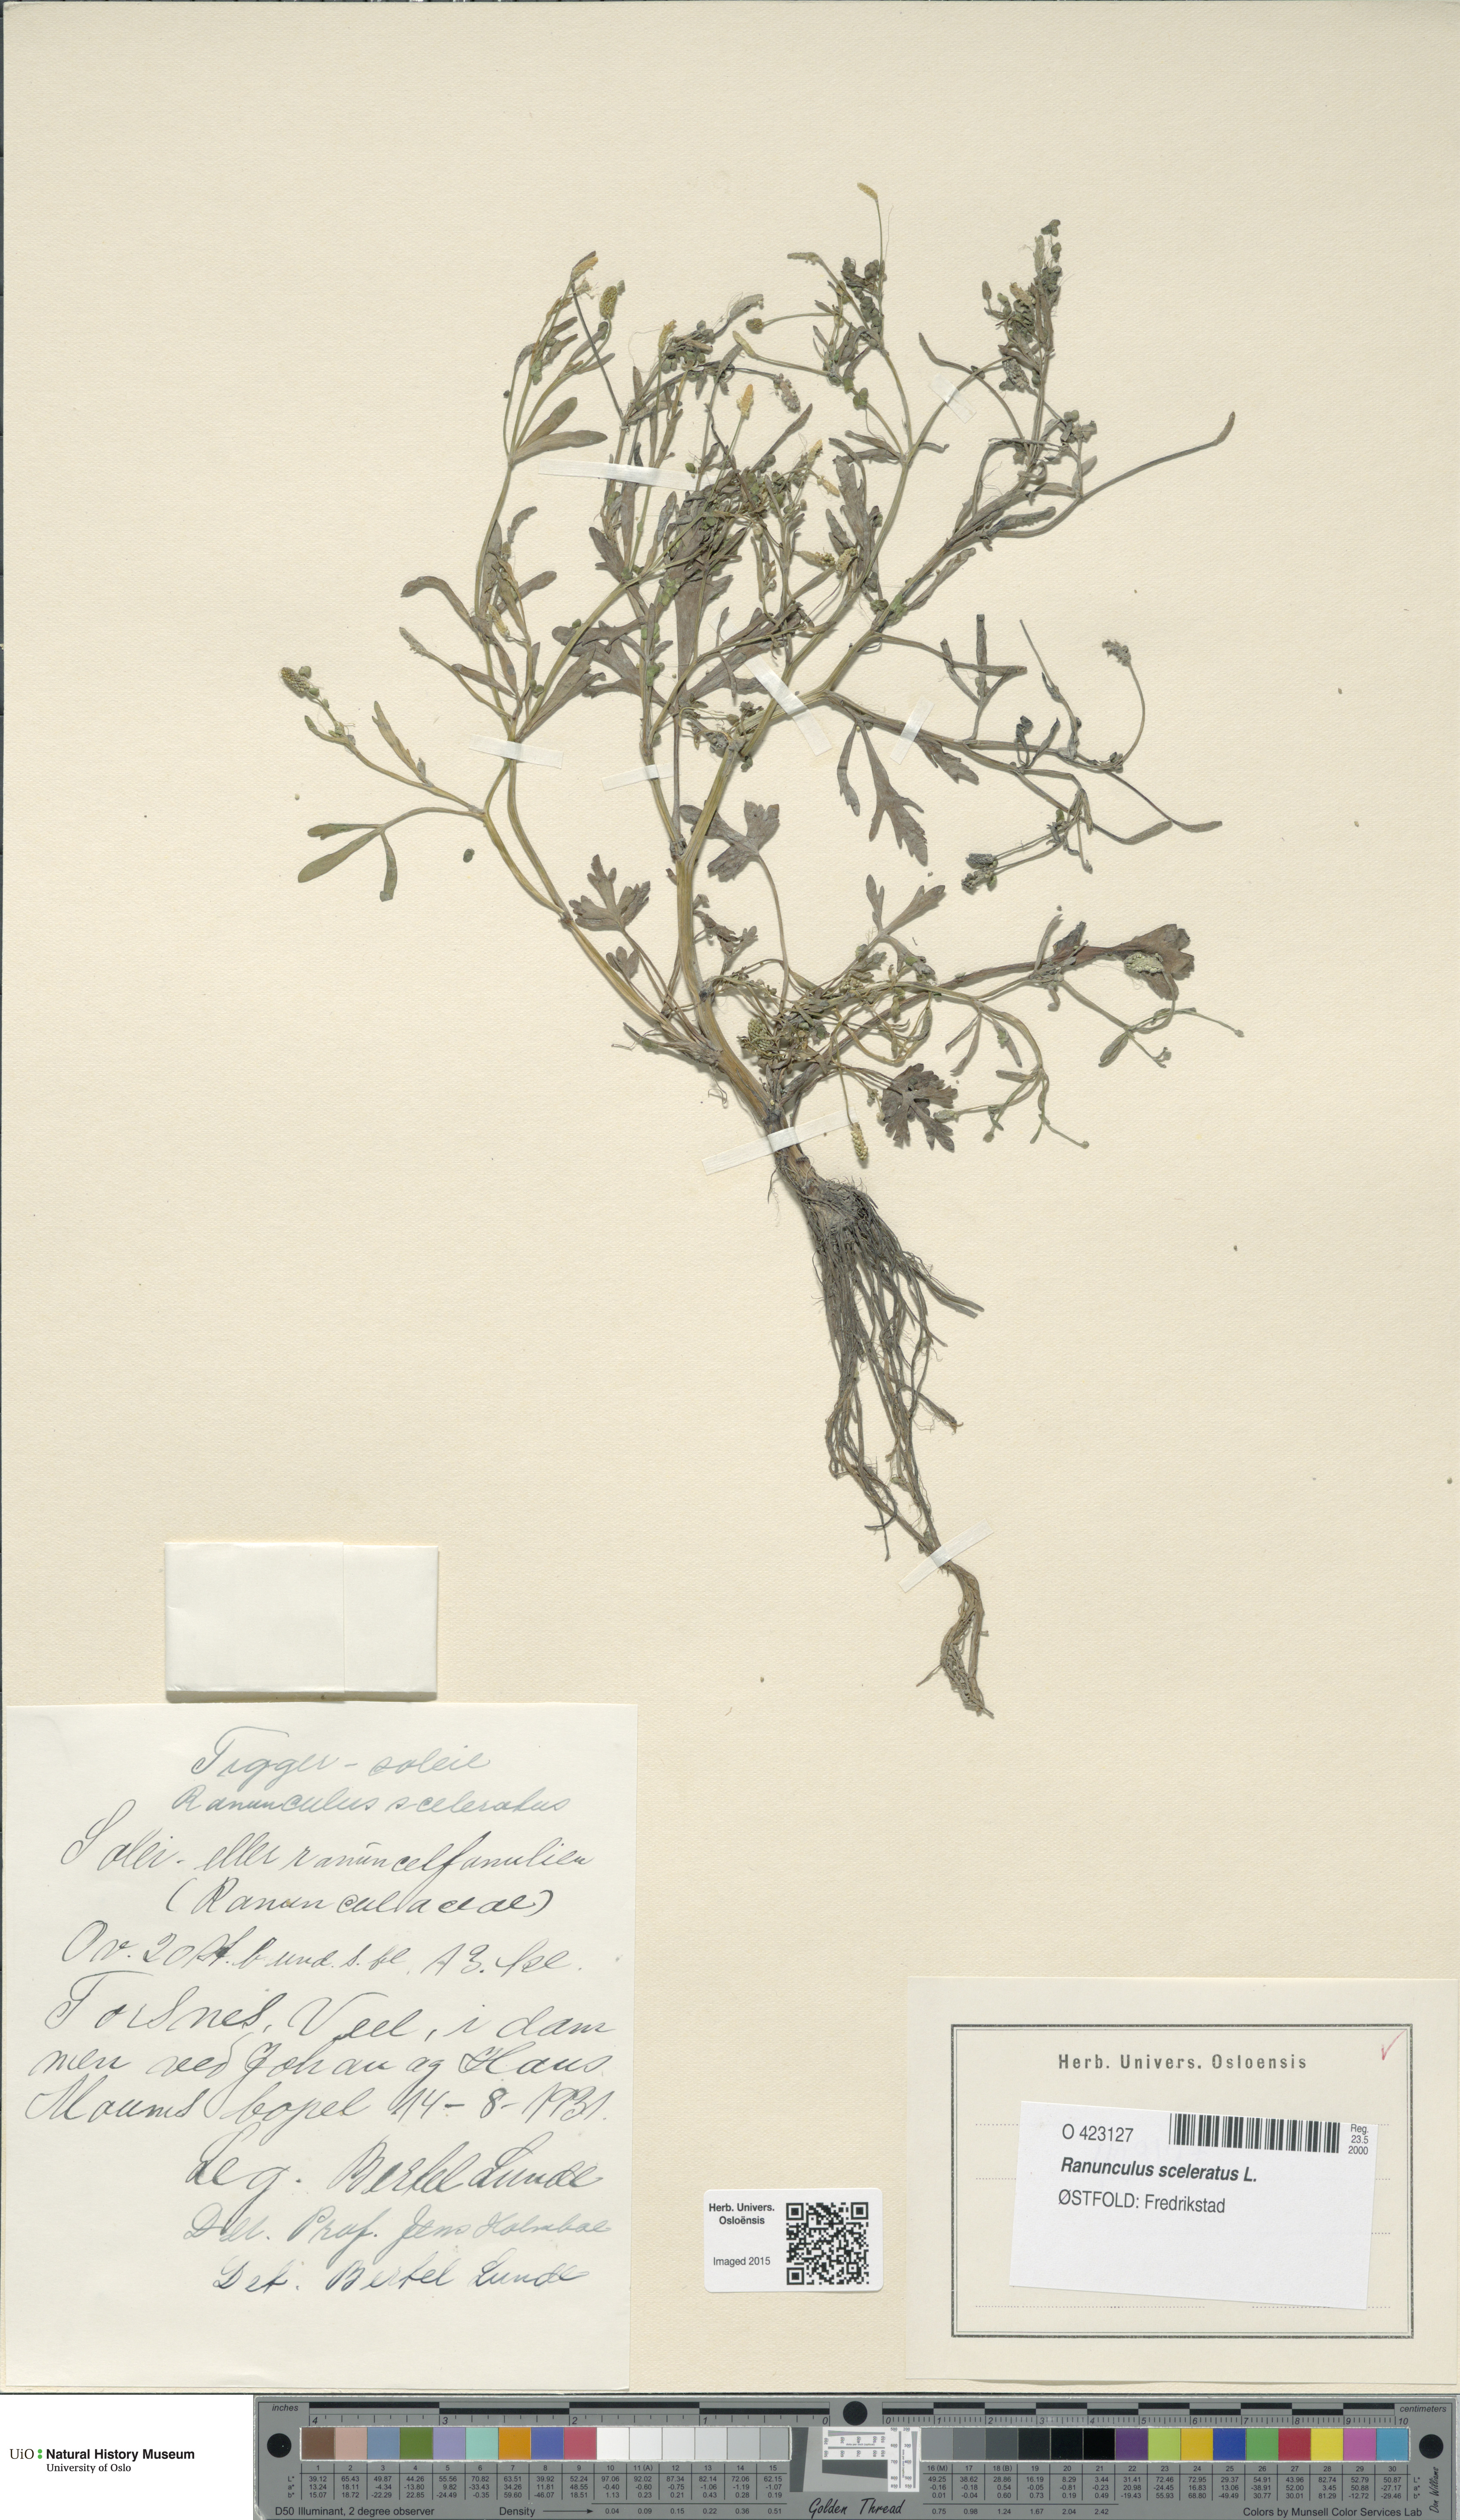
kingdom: Plantae
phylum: Tracheophyta
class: Magnoliopsida
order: Ranunculales
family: Ranunculaceae
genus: Ranunculus
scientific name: Ranunculus sceleratus
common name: Celery-leaved buttercup
